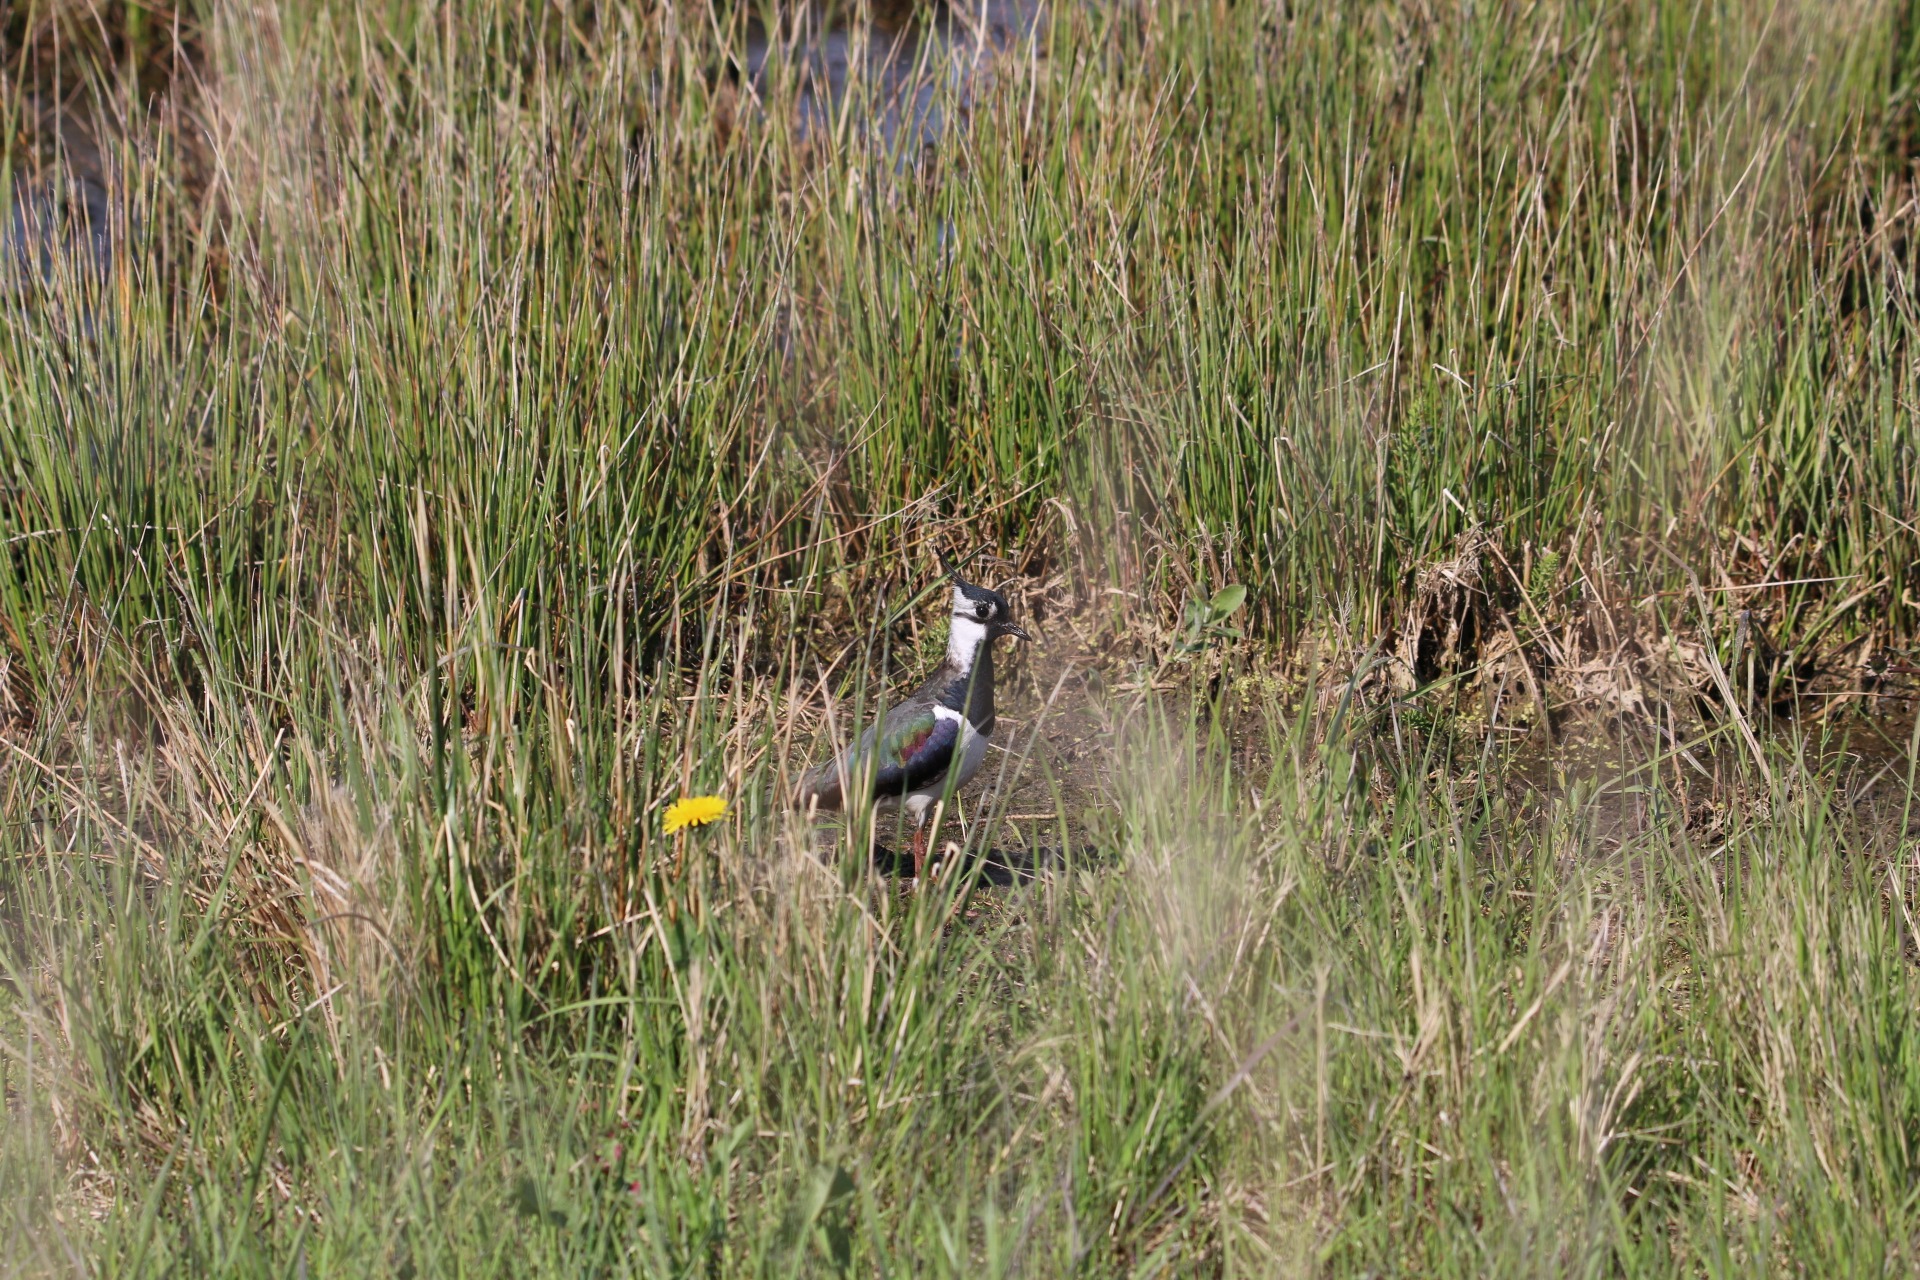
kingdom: Animalia
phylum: Chordata
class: Aves
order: Charadriiformes
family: Charadriidae
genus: Vanellus
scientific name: Vanellus vanellus
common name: Vibe
